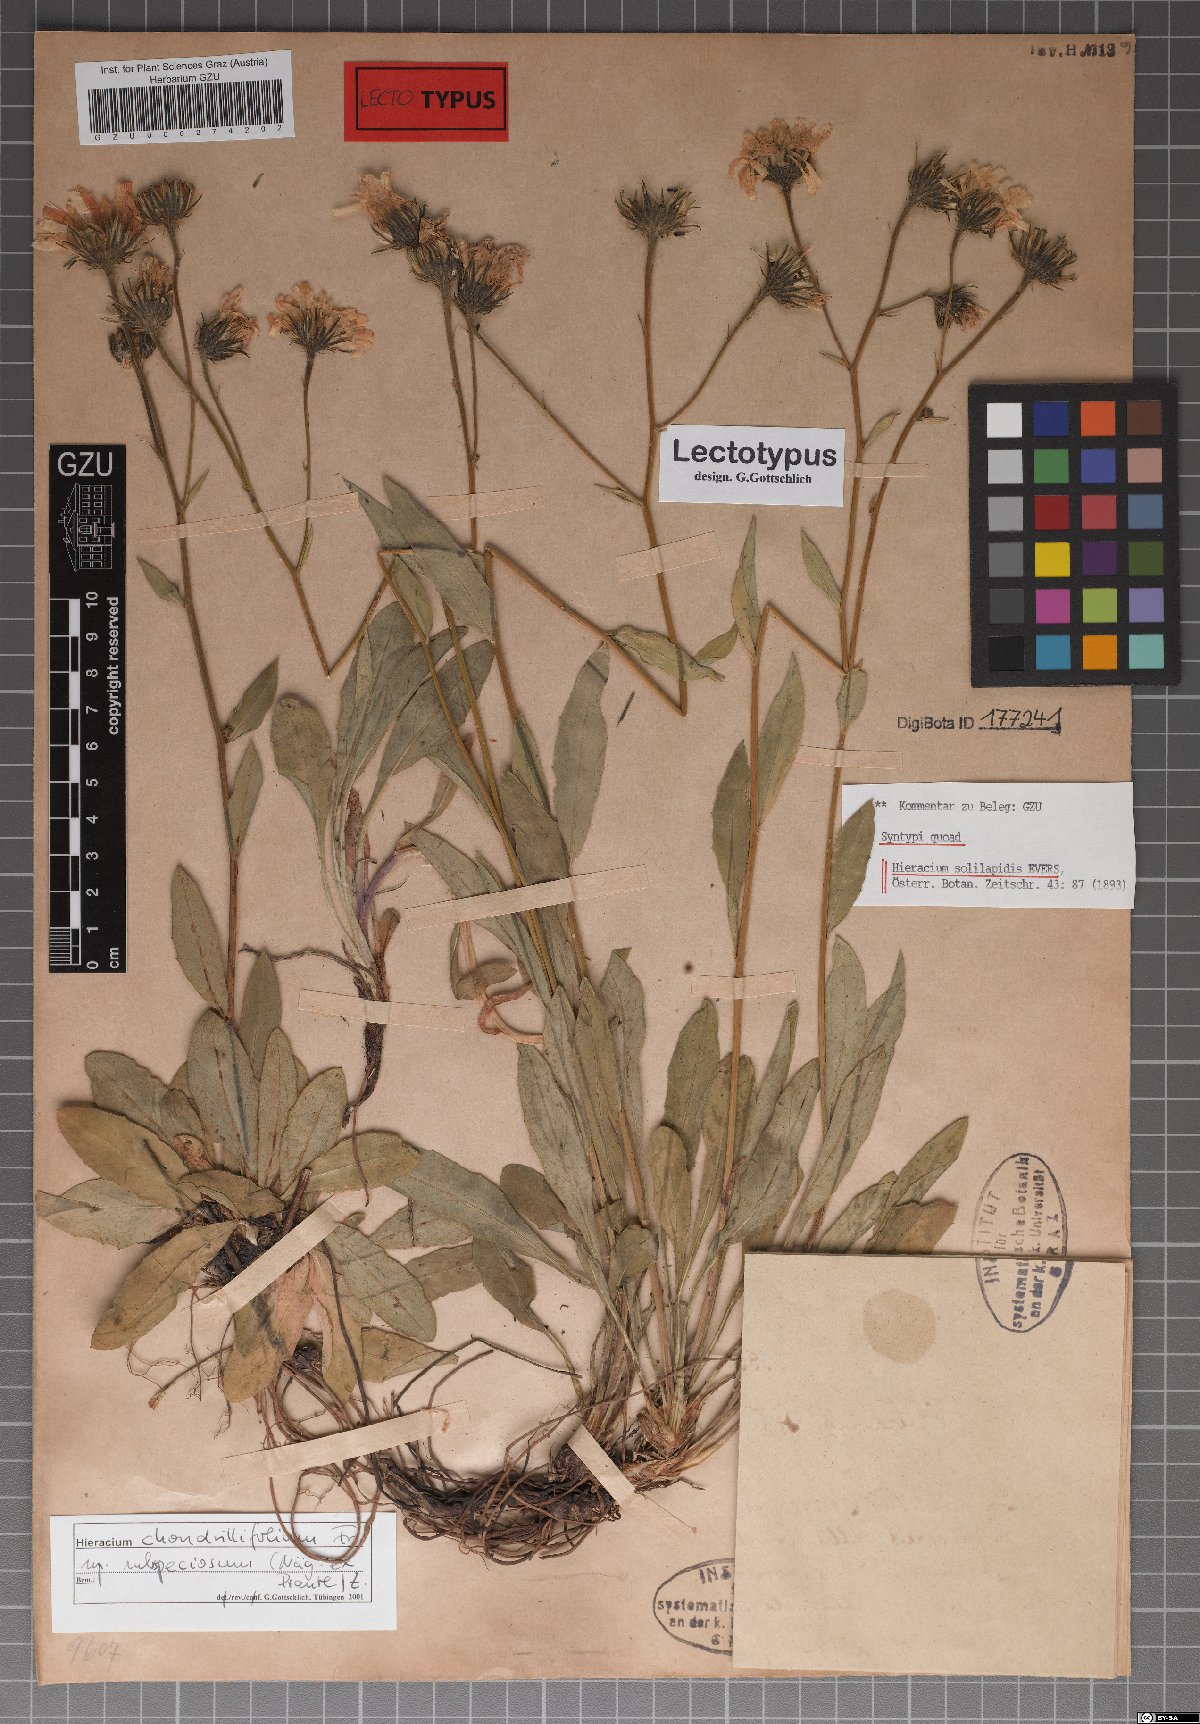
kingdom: Plantae
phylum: Tracheophyta
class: Magnoliopsida
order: Asterales
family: Asteraceae
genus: Hieracium
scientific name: Hieracium subspeciosum
